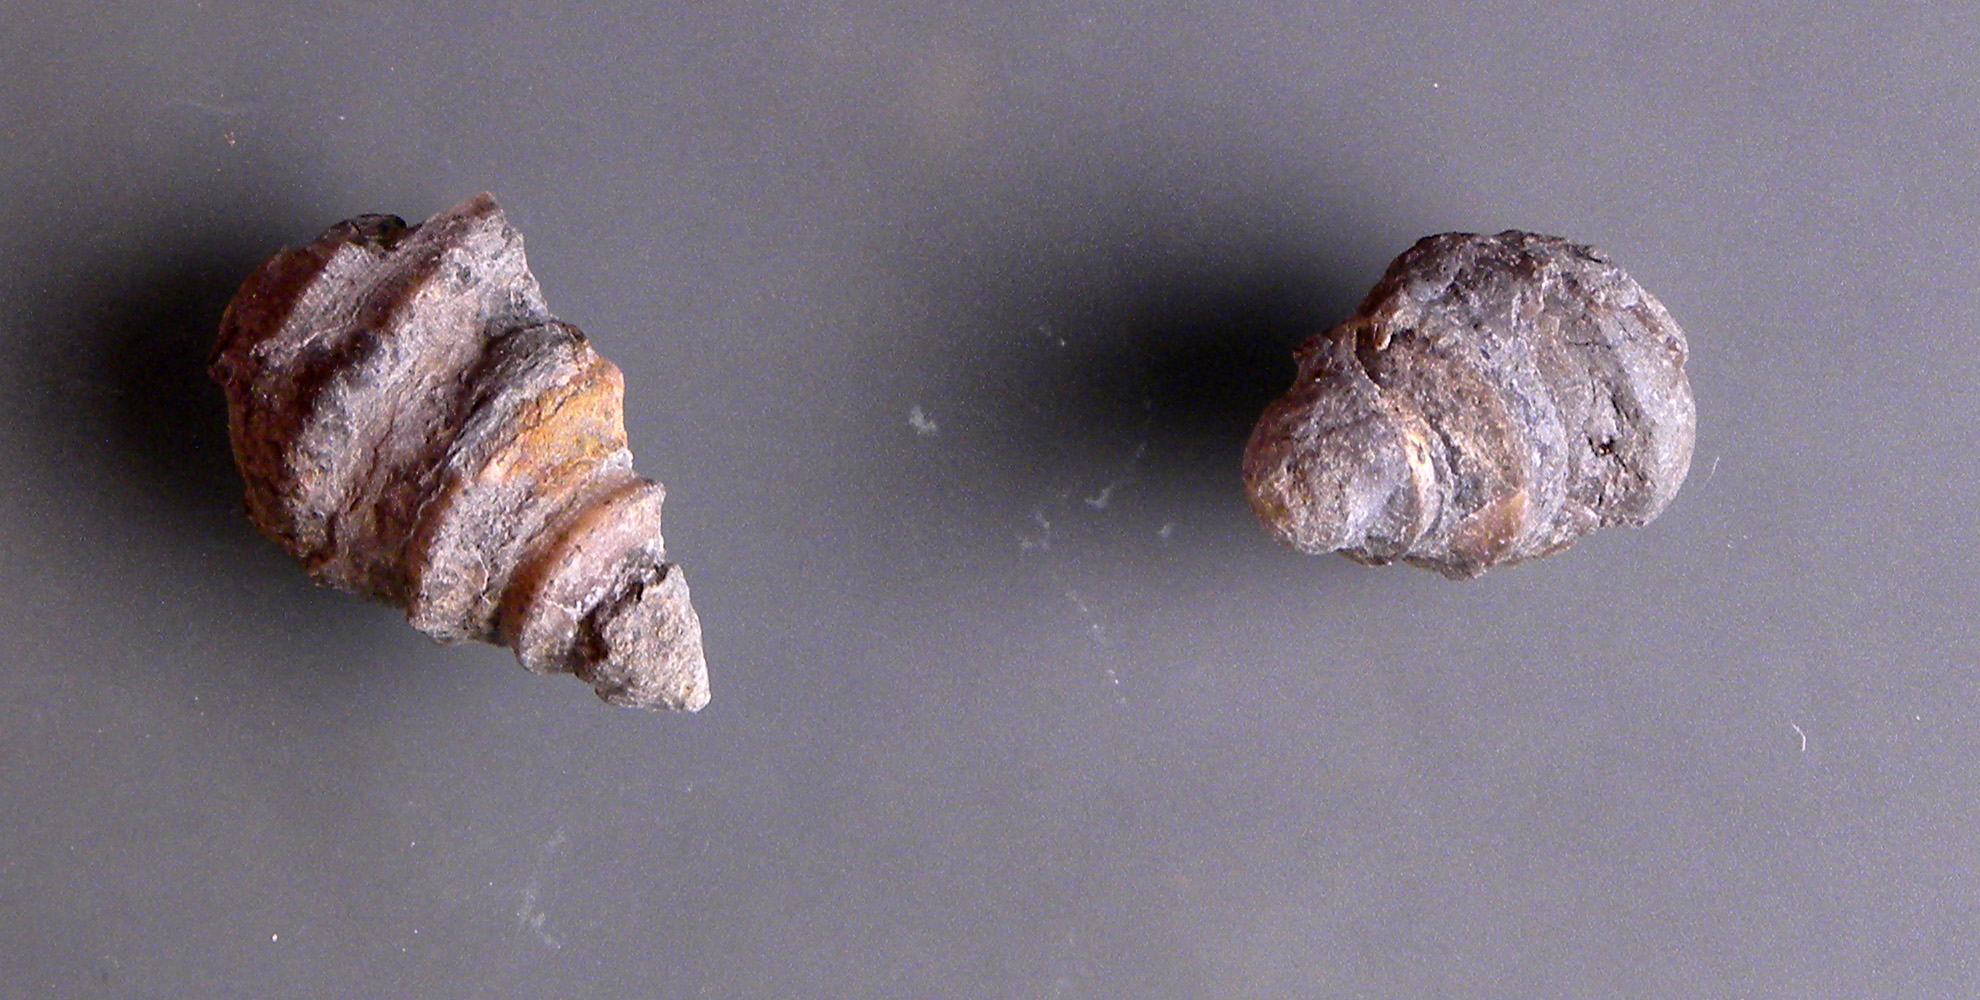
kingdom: Animalia
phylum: Mollusca
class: Gastropoda
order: Seguenziida
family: Eucyclidae
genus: Eucycloidea
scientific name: Eucycloidea Rostellaria tenuistria
